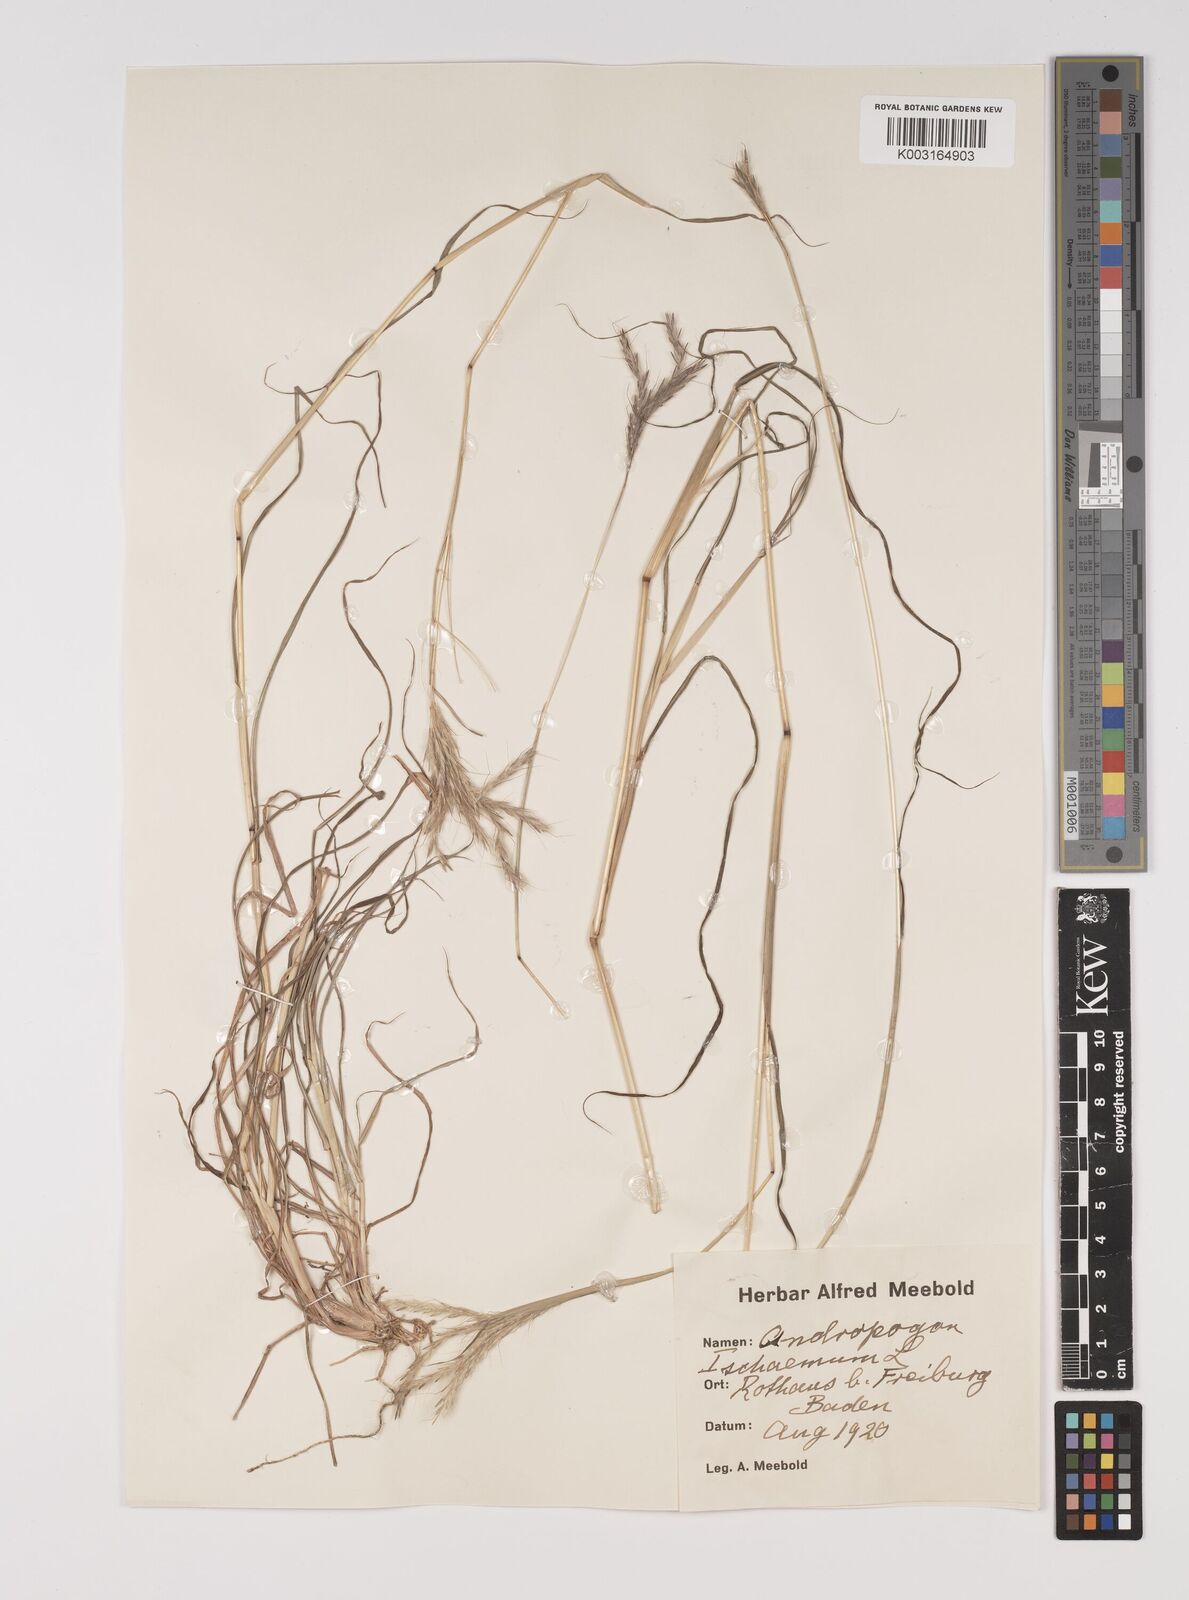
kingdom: Plantae
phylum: Tracheophyta
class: Liliopsida
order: Poales
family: Poaceae
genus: Bothriochloa
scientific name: Bothriochloa ischaemum
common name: Yellow bluestem
